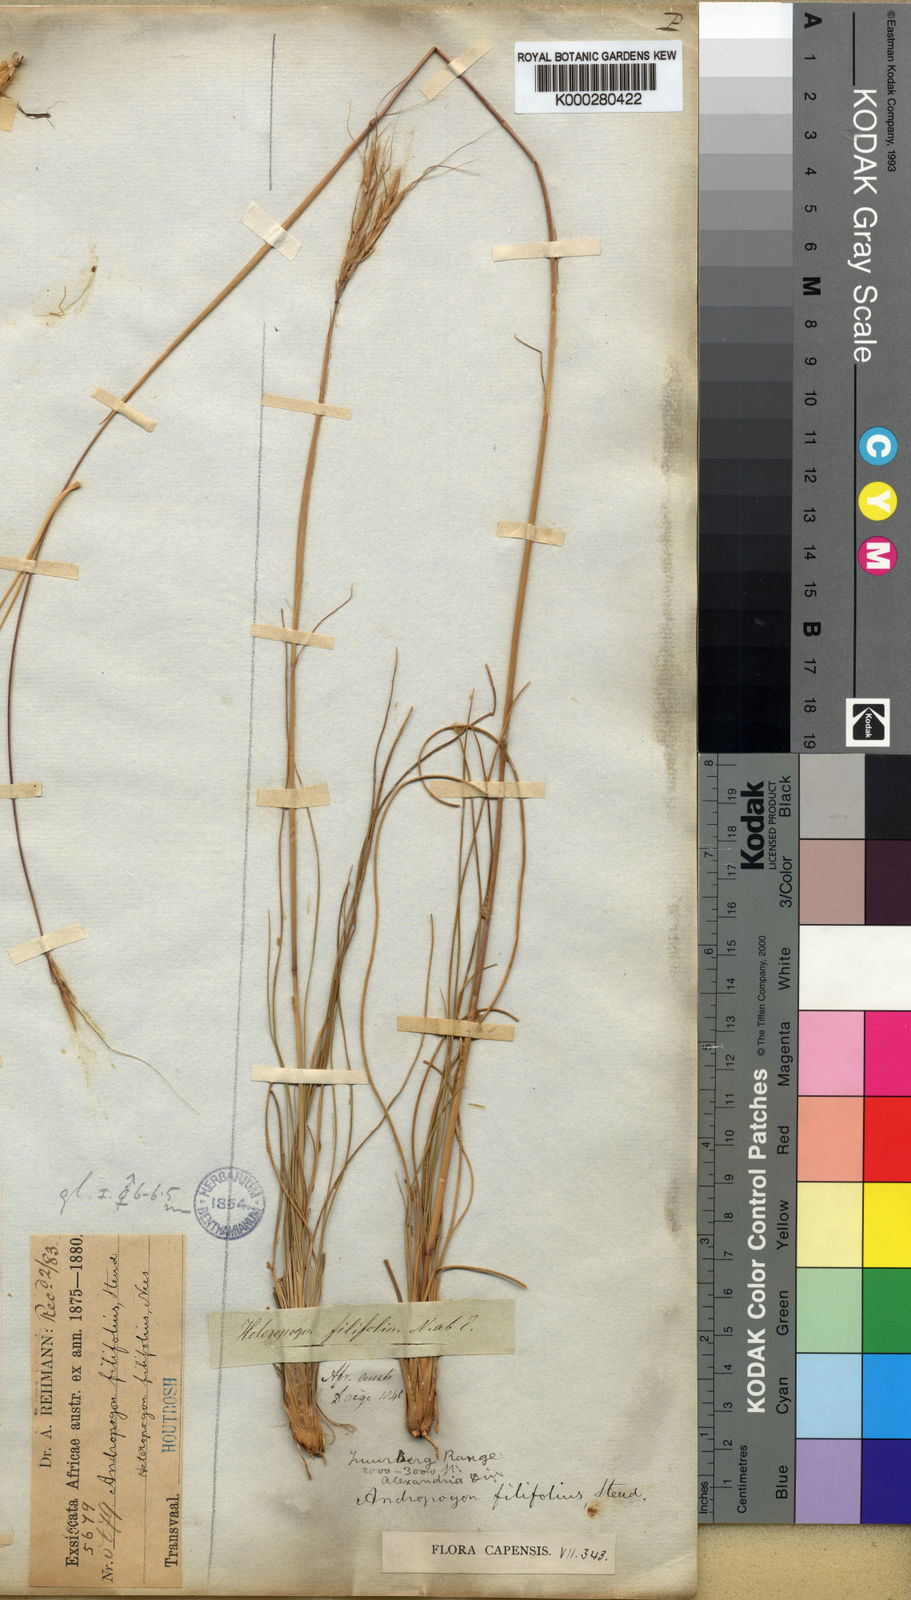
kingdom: Plantae
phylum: Tracheophyta
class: Liliopsida
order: Poales
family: Poaceae
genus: Diheteropogon
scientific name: Diheteropogon filifolius
